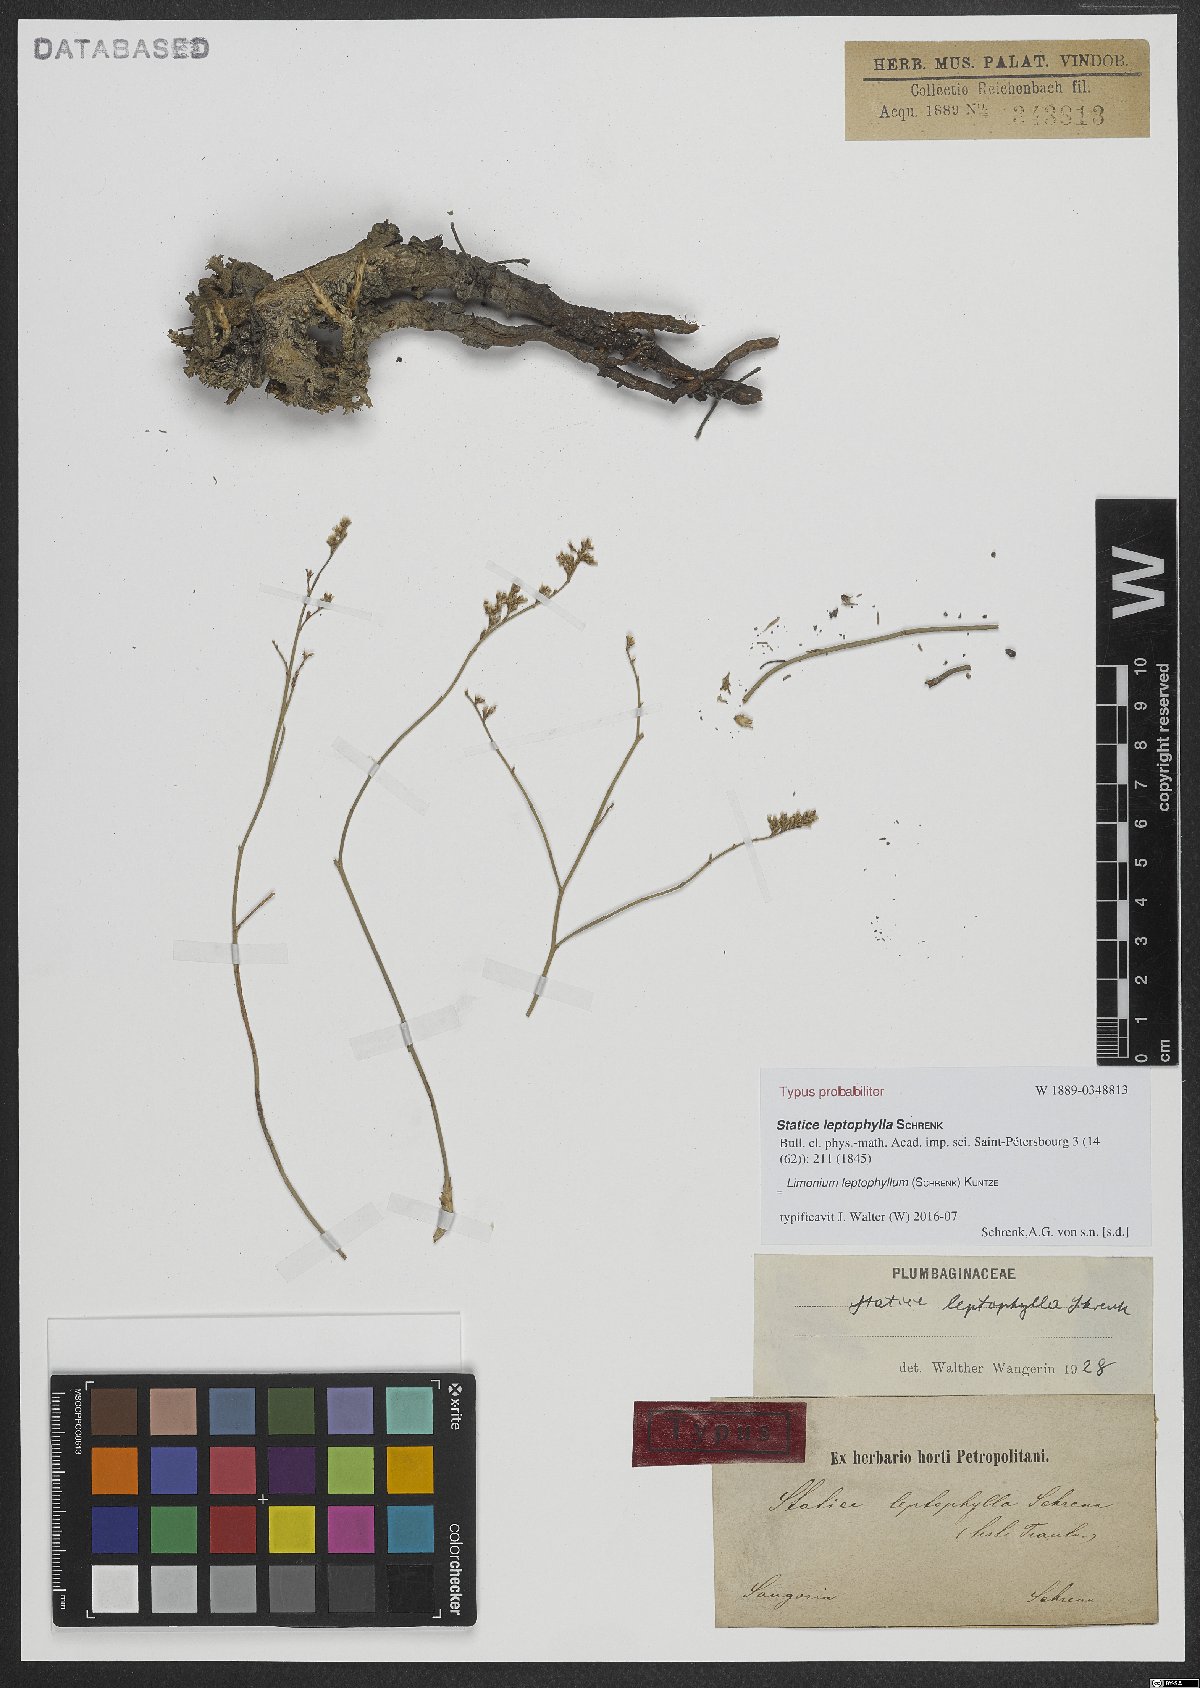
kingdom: Plantae
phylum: Tracheophyta
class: Magnoliopsida
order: Caryophyllales
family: Plumbaginaceae
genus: Limonium
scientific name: Limonium leptophyllum
